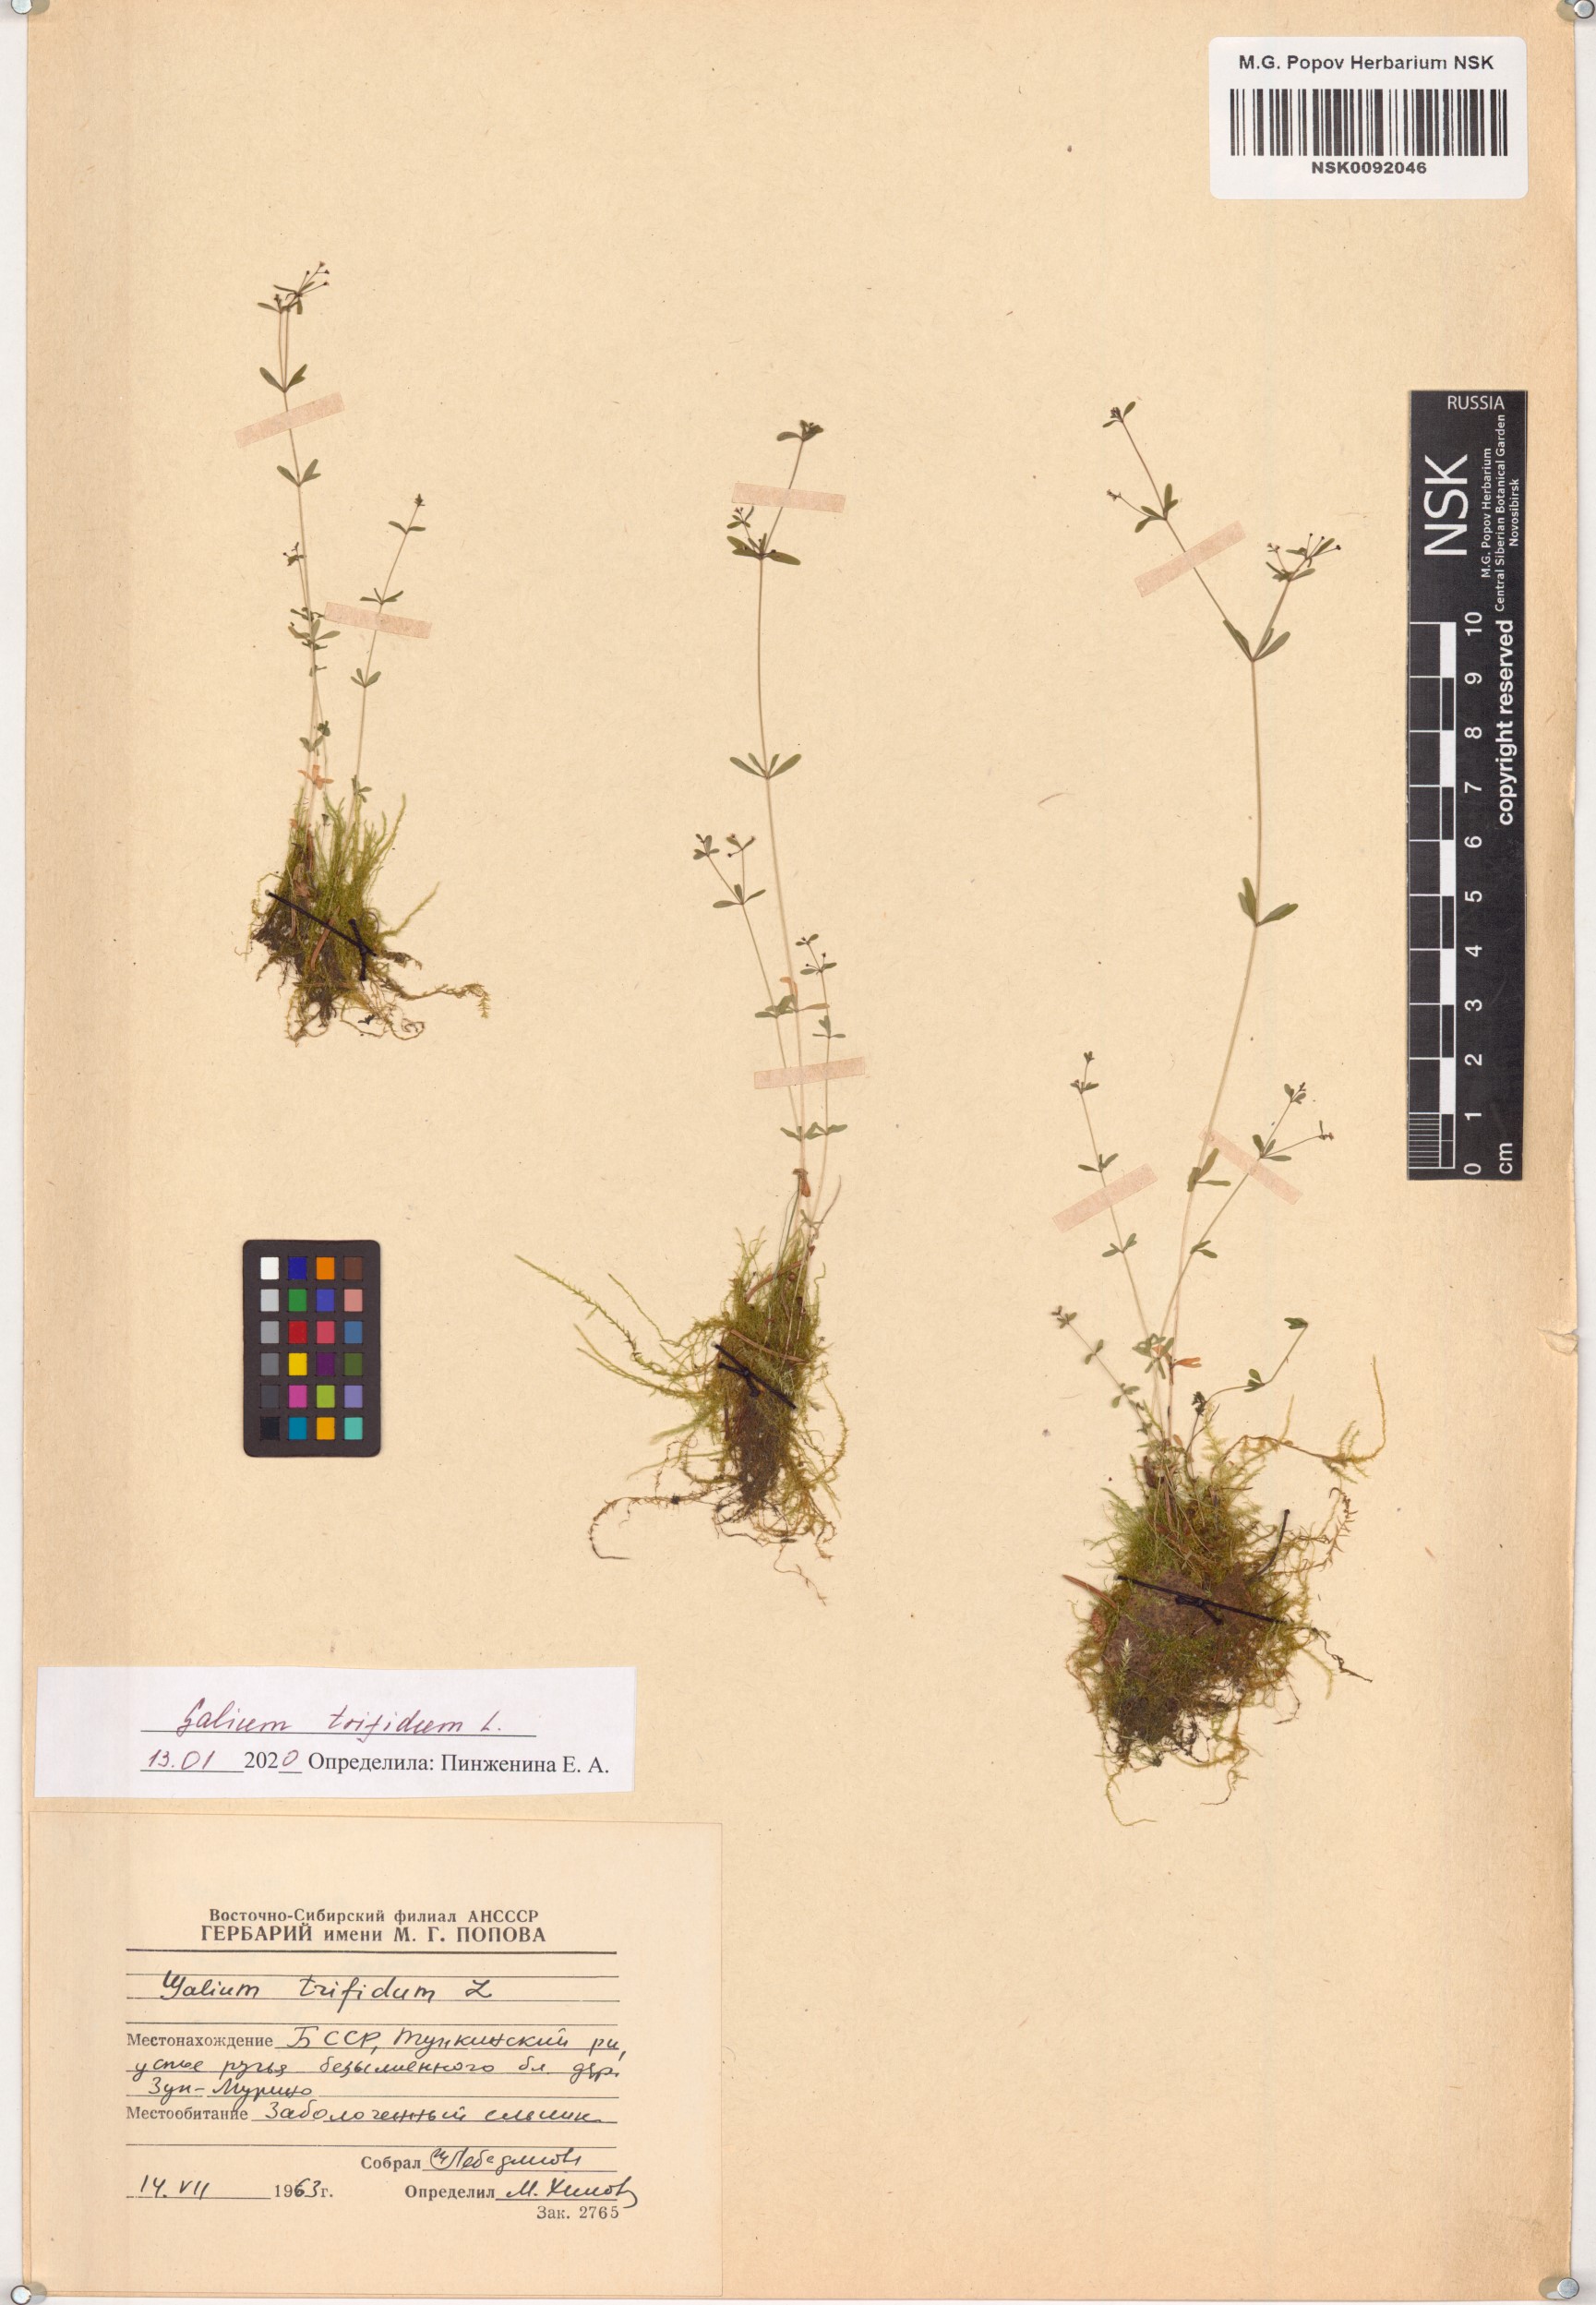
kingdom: Plantae
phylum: Tracheophyta
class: Magnoliopsida
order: Gentianales
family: Rubiaceae
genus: Galium
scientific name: Galium trifidum
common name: Small bedstraw
